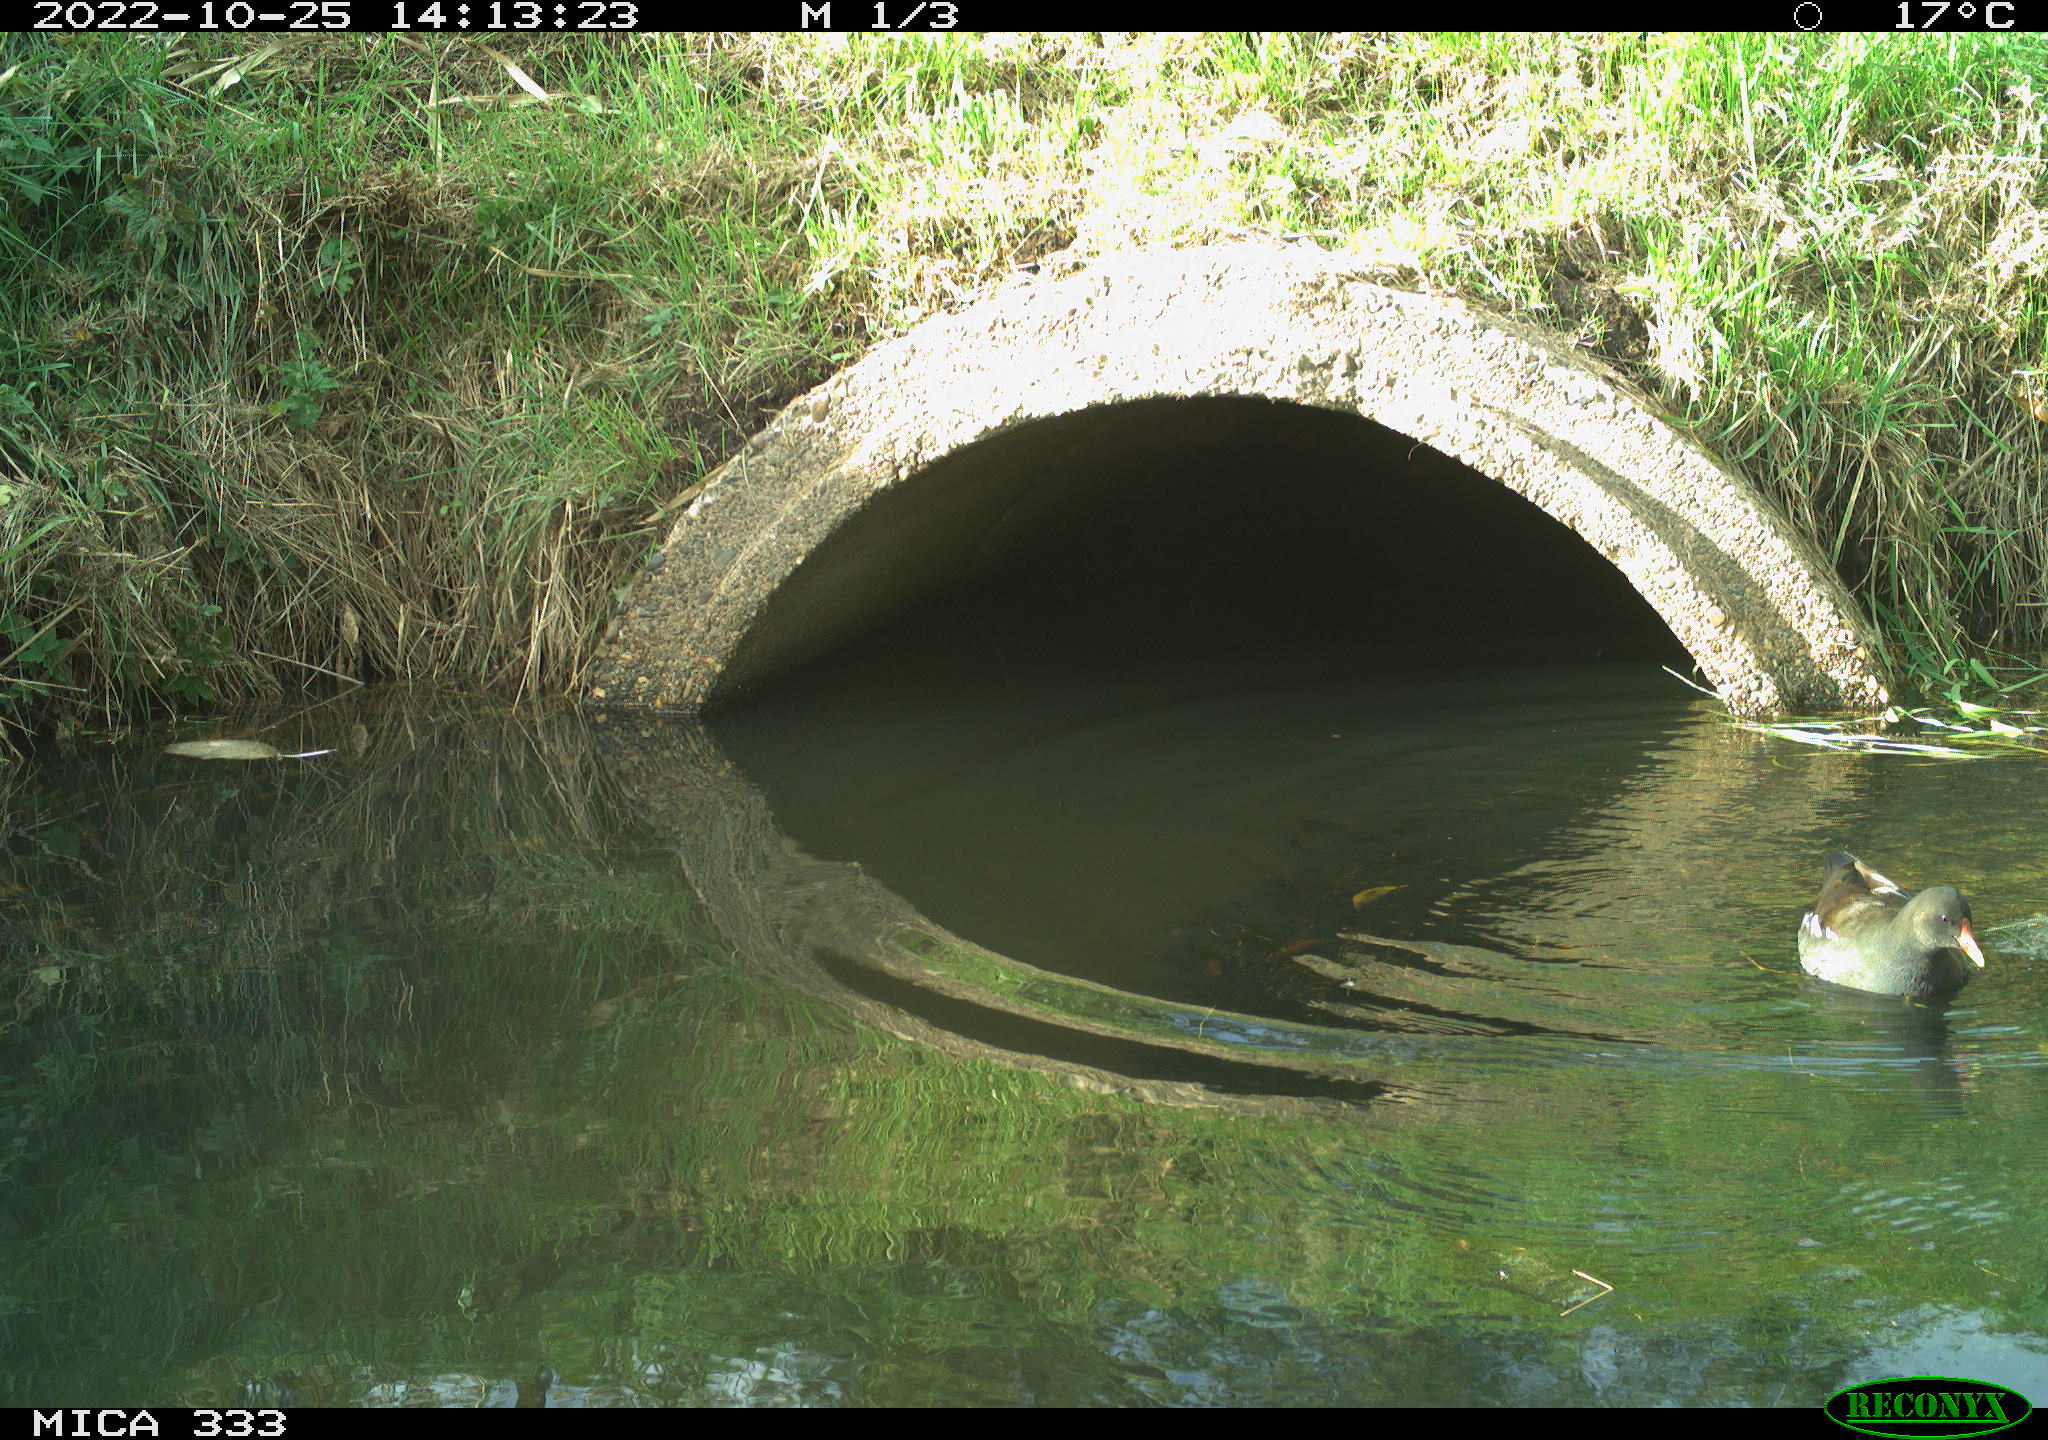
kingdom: Animalia
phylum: Chordata
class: Aves
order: Gruiformes
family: Rallidae
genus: Gallinula
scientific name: Gallinula chloropus
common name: Common moorhen
